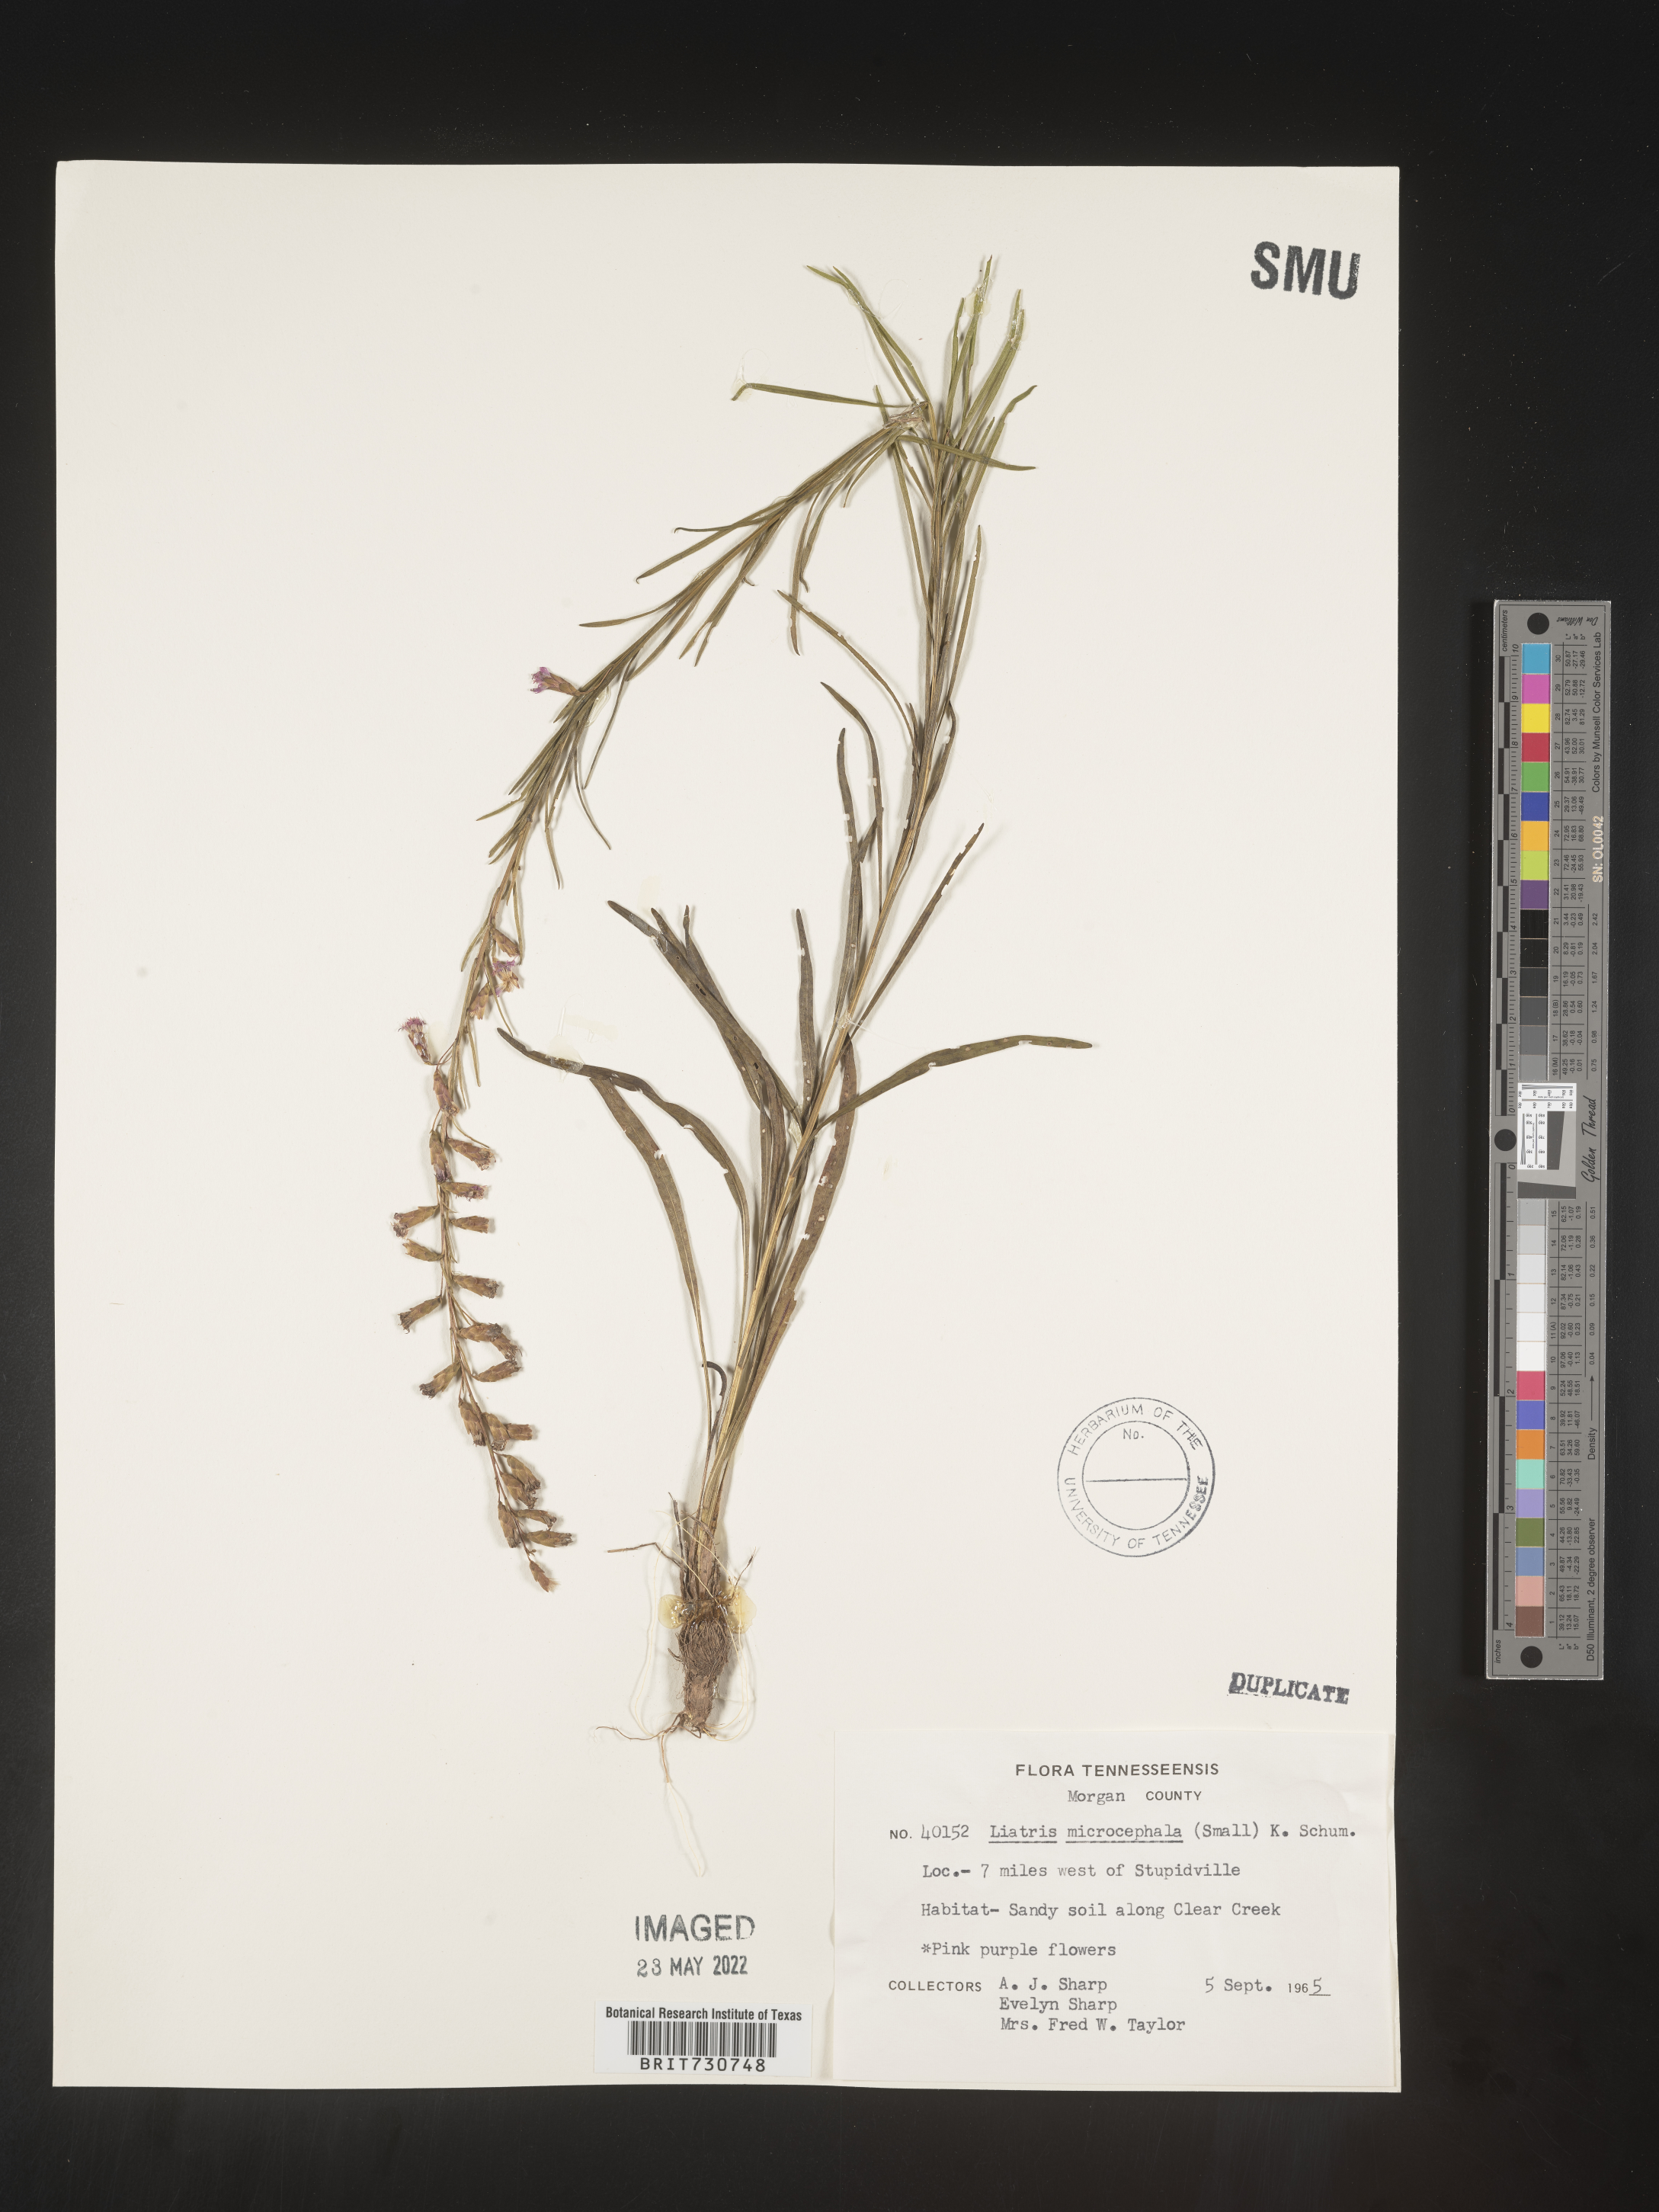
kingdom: Plantae
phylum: Tracheophyta
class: Magnoliopsida
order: Asterales
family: Asteraceae
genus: Liatris
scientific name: Liatris microcephala
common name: Small-head gayfeather
